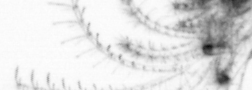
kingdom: Animalia
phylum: Arthropoda
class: Maxillopoda
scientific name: Maxillopoda
